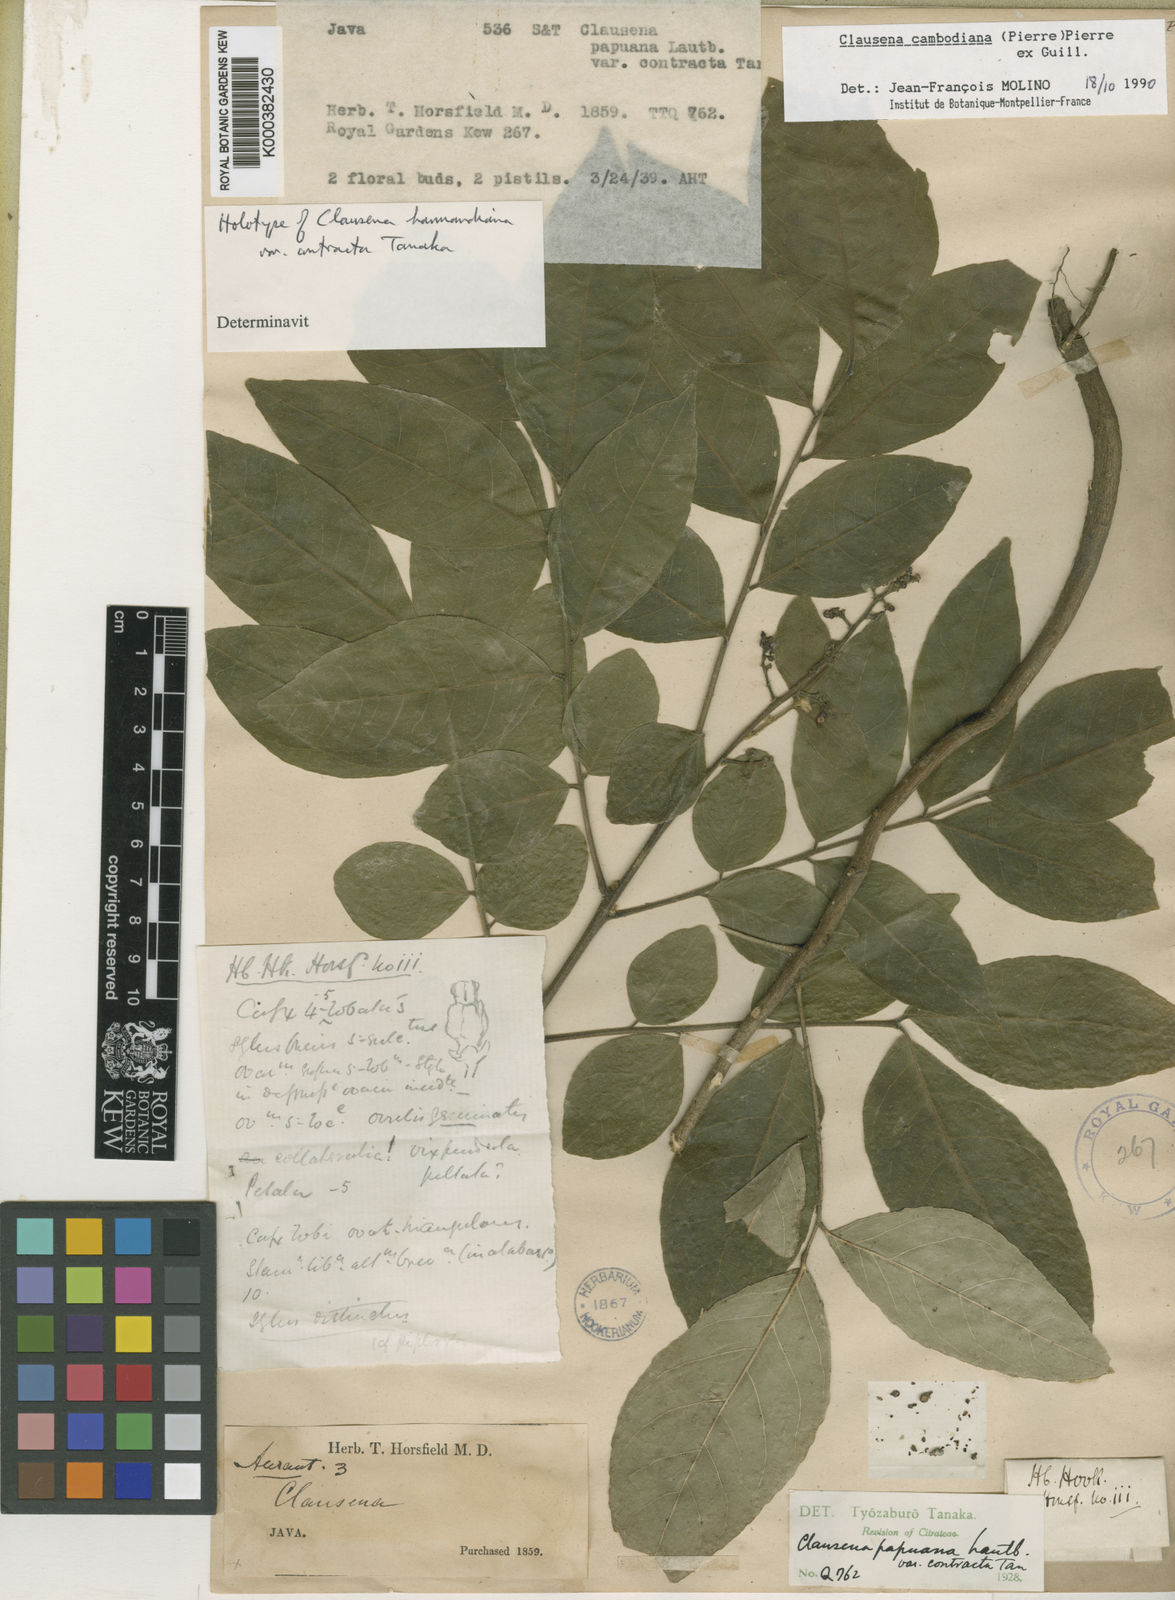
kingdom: Plantae
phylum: Tracheophyta
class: Magnoliopsida
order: Sapindales
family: Rutaceae
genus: Clausena
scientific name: Clausena harmandiana
